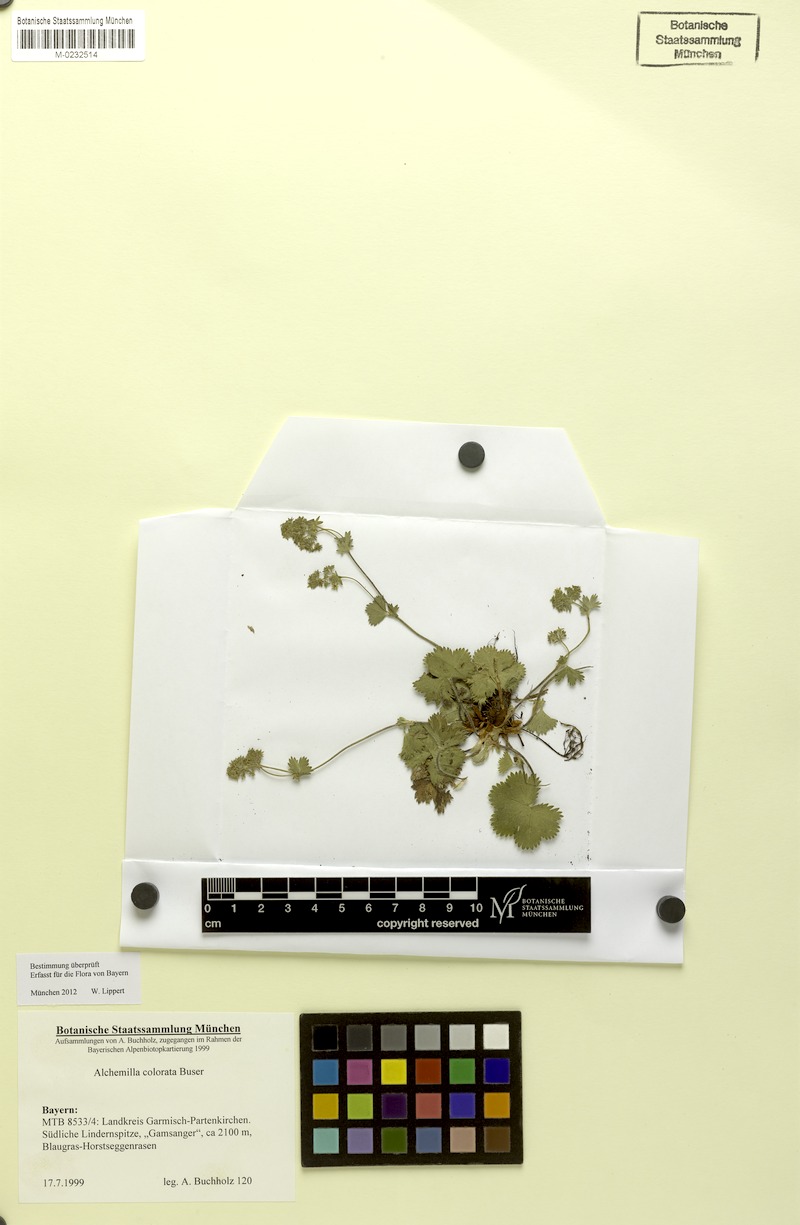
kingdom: Plantae
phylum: Tracheophyta
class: Magnoliopsida
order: Rosales
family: Rosaceae
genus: Alchemilla
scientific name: Alchemilla colorata
